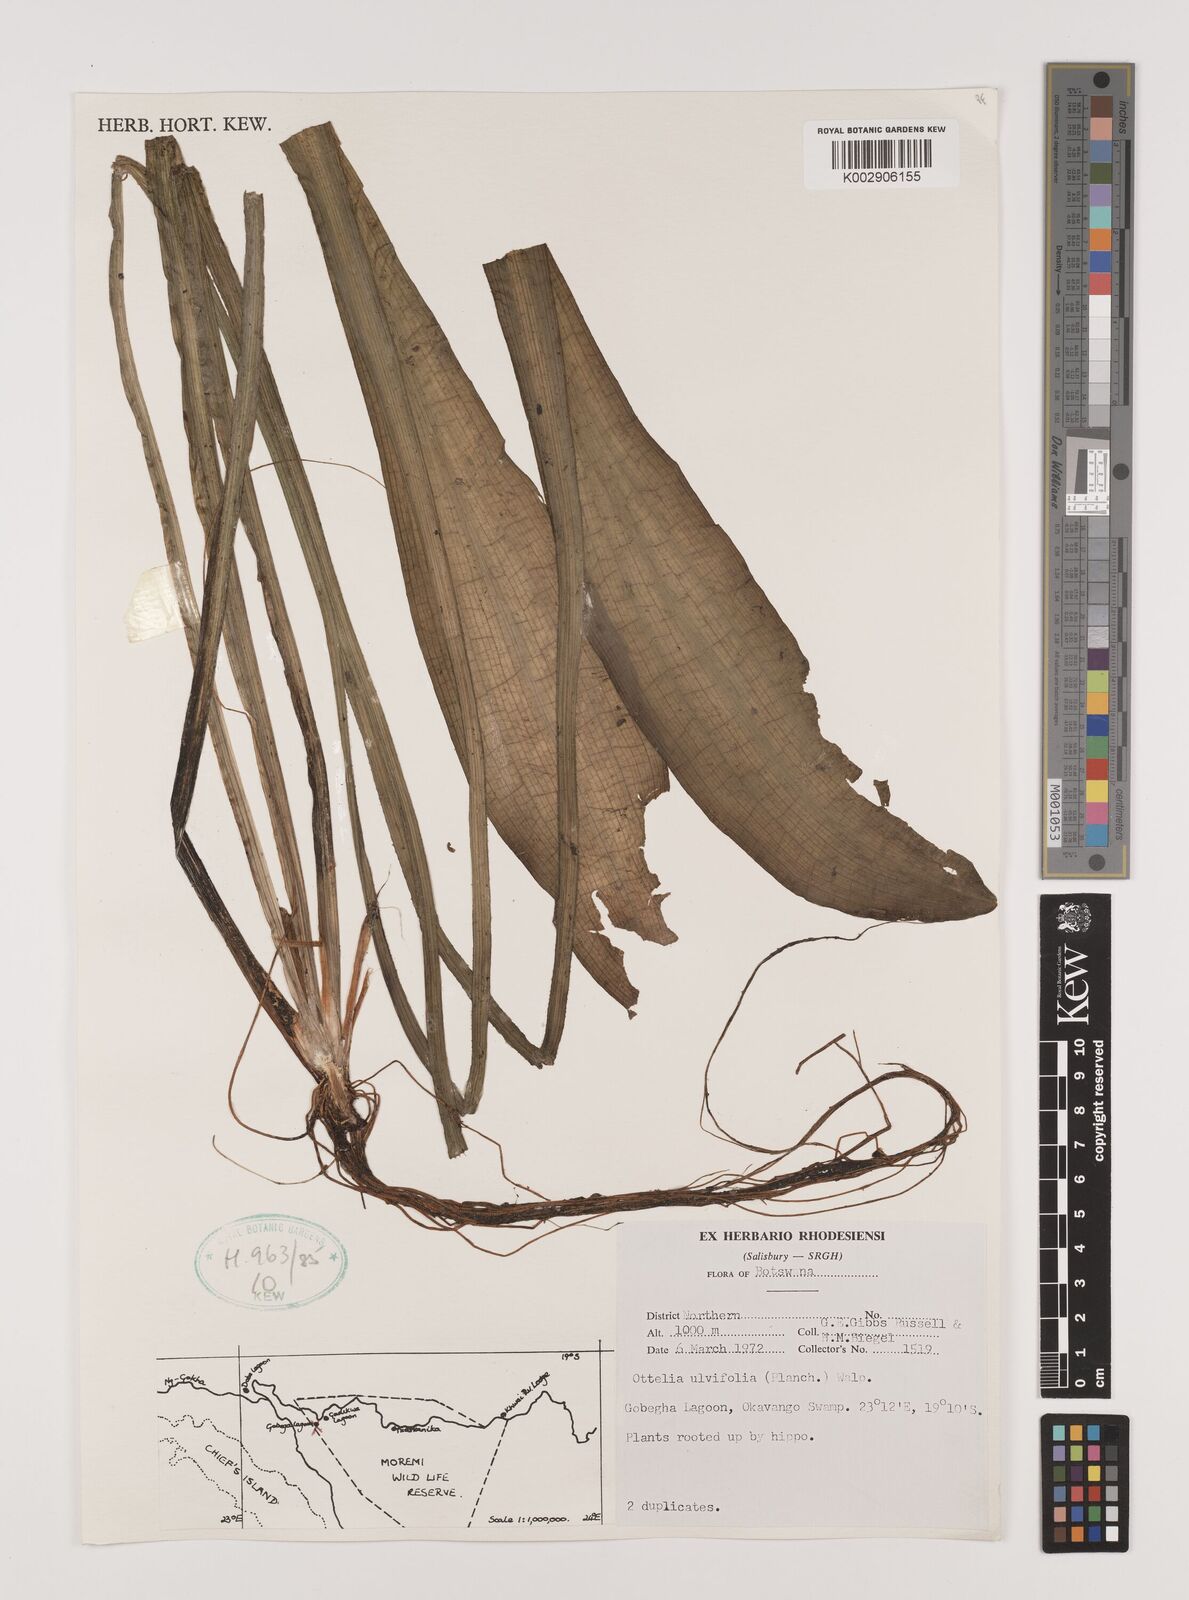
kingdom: Plantae
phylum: Tracheophyta
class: Liliopsida
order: Alismatales
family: Hydrocharitaceae
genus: Ottelia
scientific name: Ottelia ulvifolia
